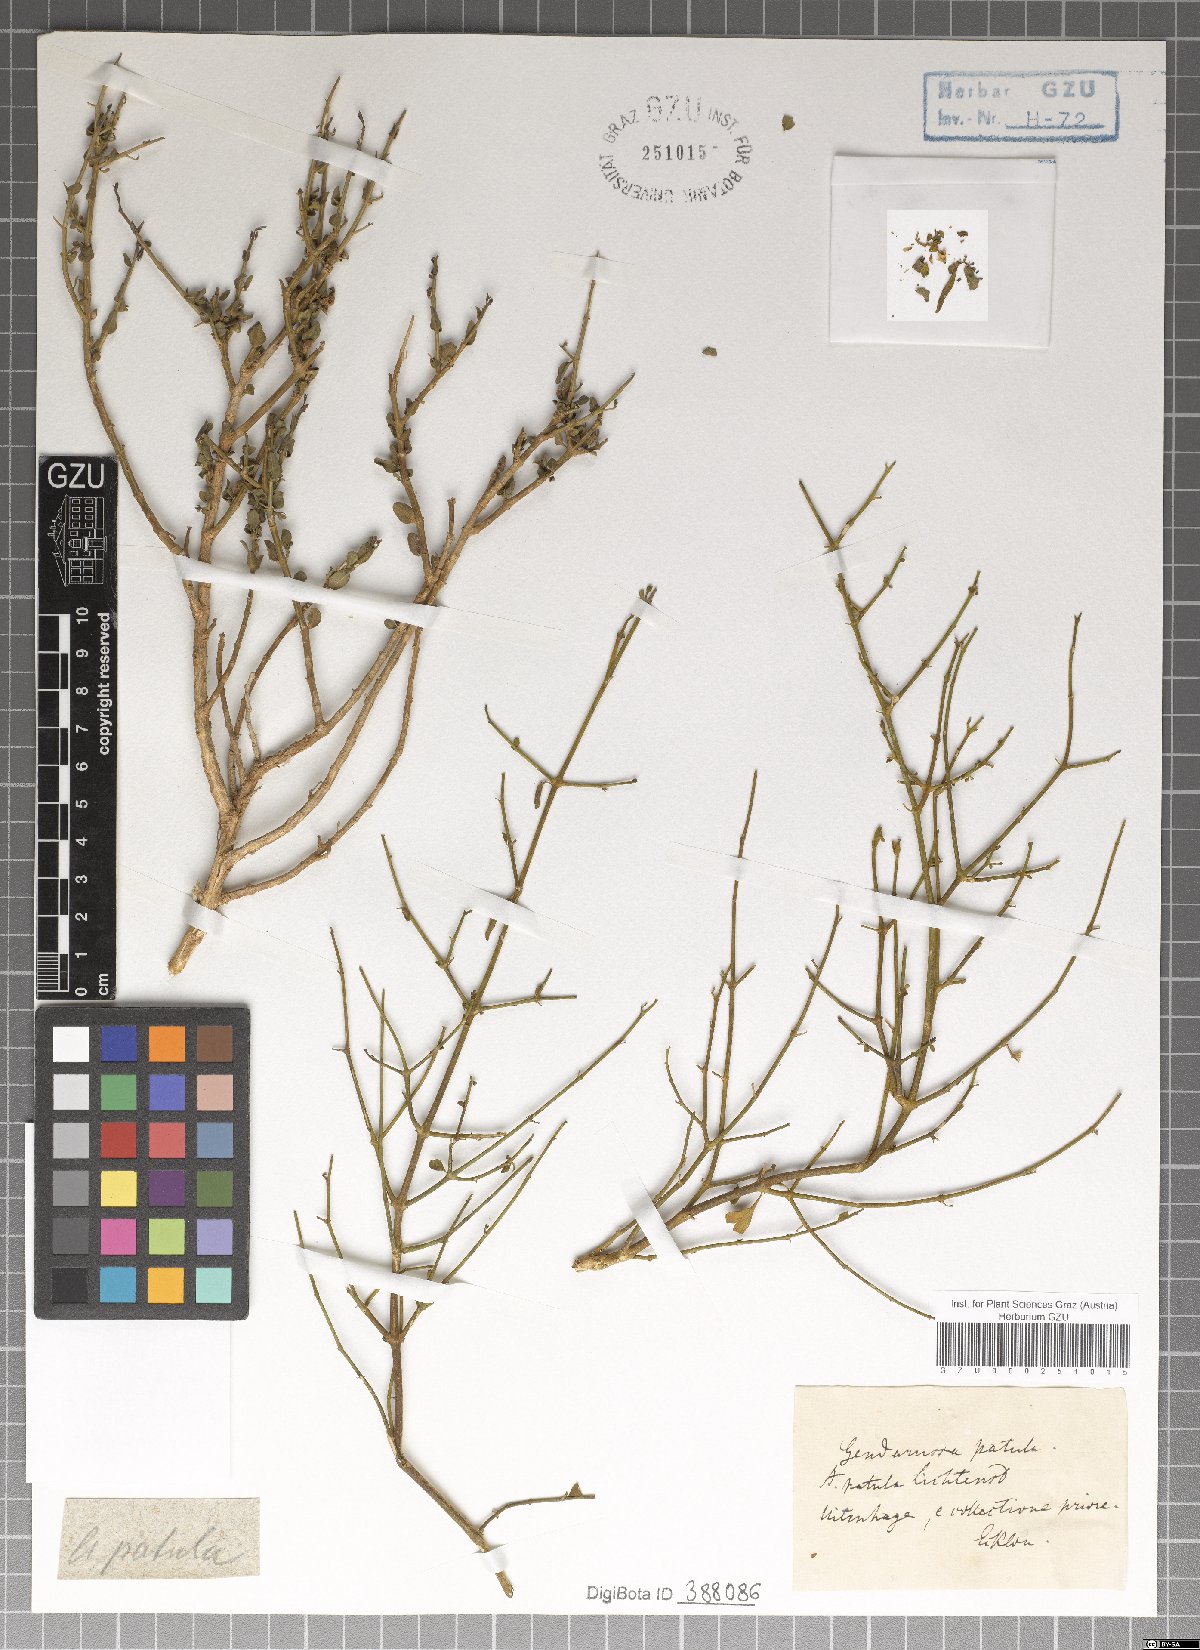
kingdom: Plantae
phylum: Tracheophyta
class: Magnoliopsida
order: Lamiales
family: Acanthaceae
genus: Monechma
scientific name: Monechma spartioides
